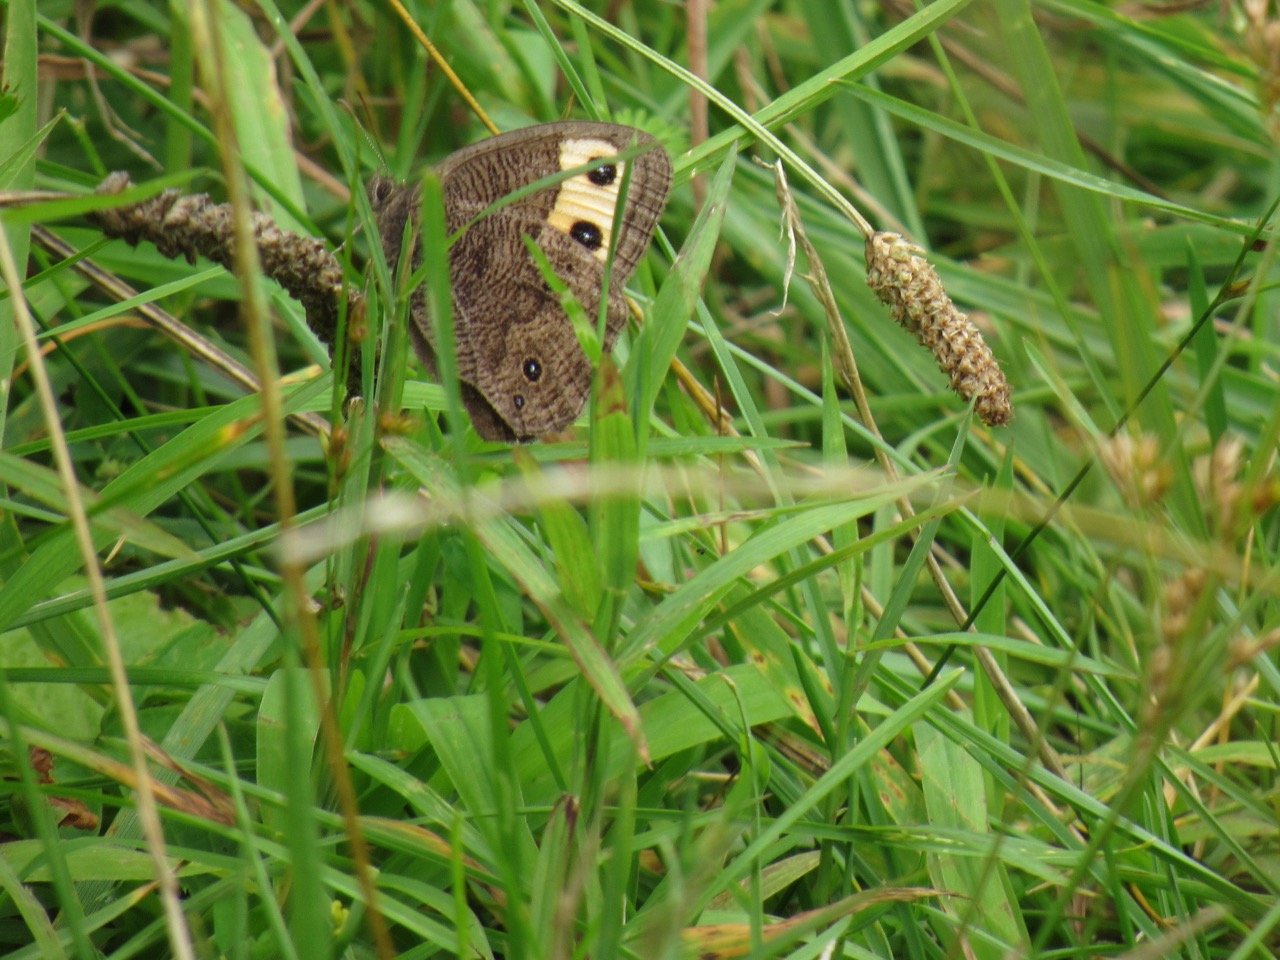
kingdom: Animalia
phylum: Arthropoda
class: Insecta
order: Lepidoptera
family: Nymphalidae
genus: Cercyonis
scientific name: Cercyonis pegala
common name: Common Wood-Nymph
